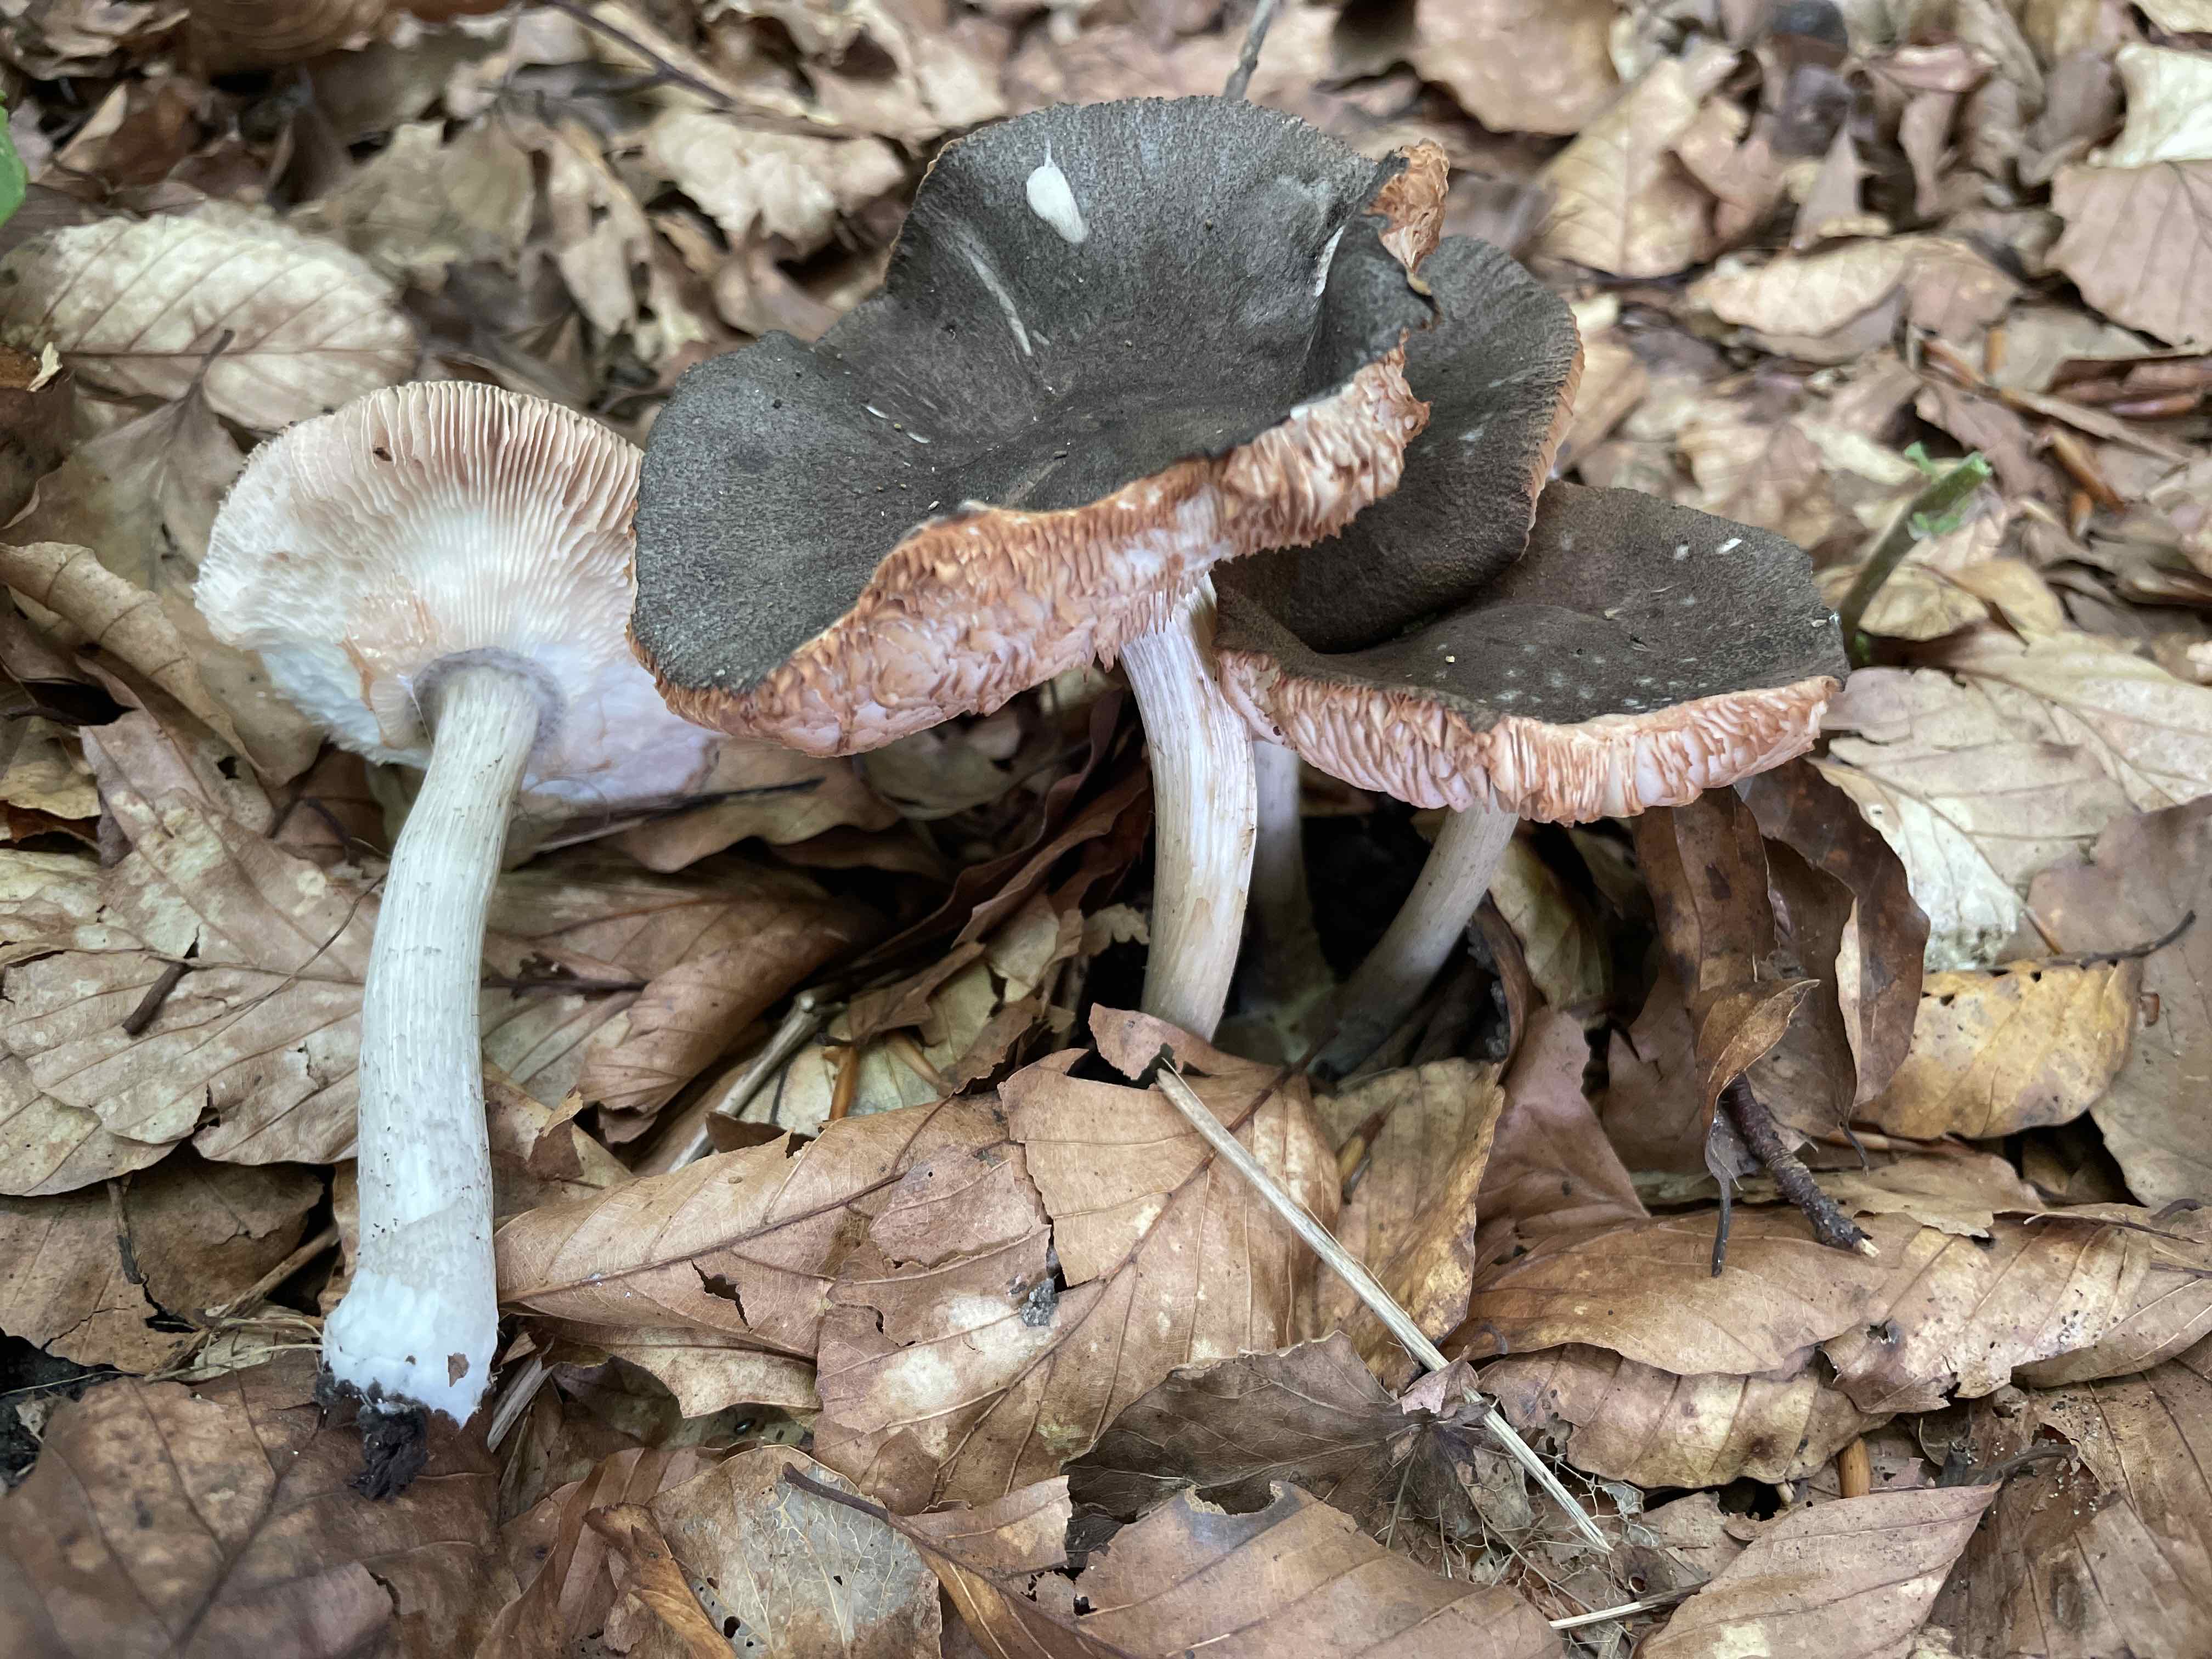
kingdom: Fungi
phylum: Basidiomycota
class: Agaricomycetes
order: Agaricales
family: Pluteaceae
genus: Pluteus
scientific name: Pluteus ephebeus
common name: Sooty shield
